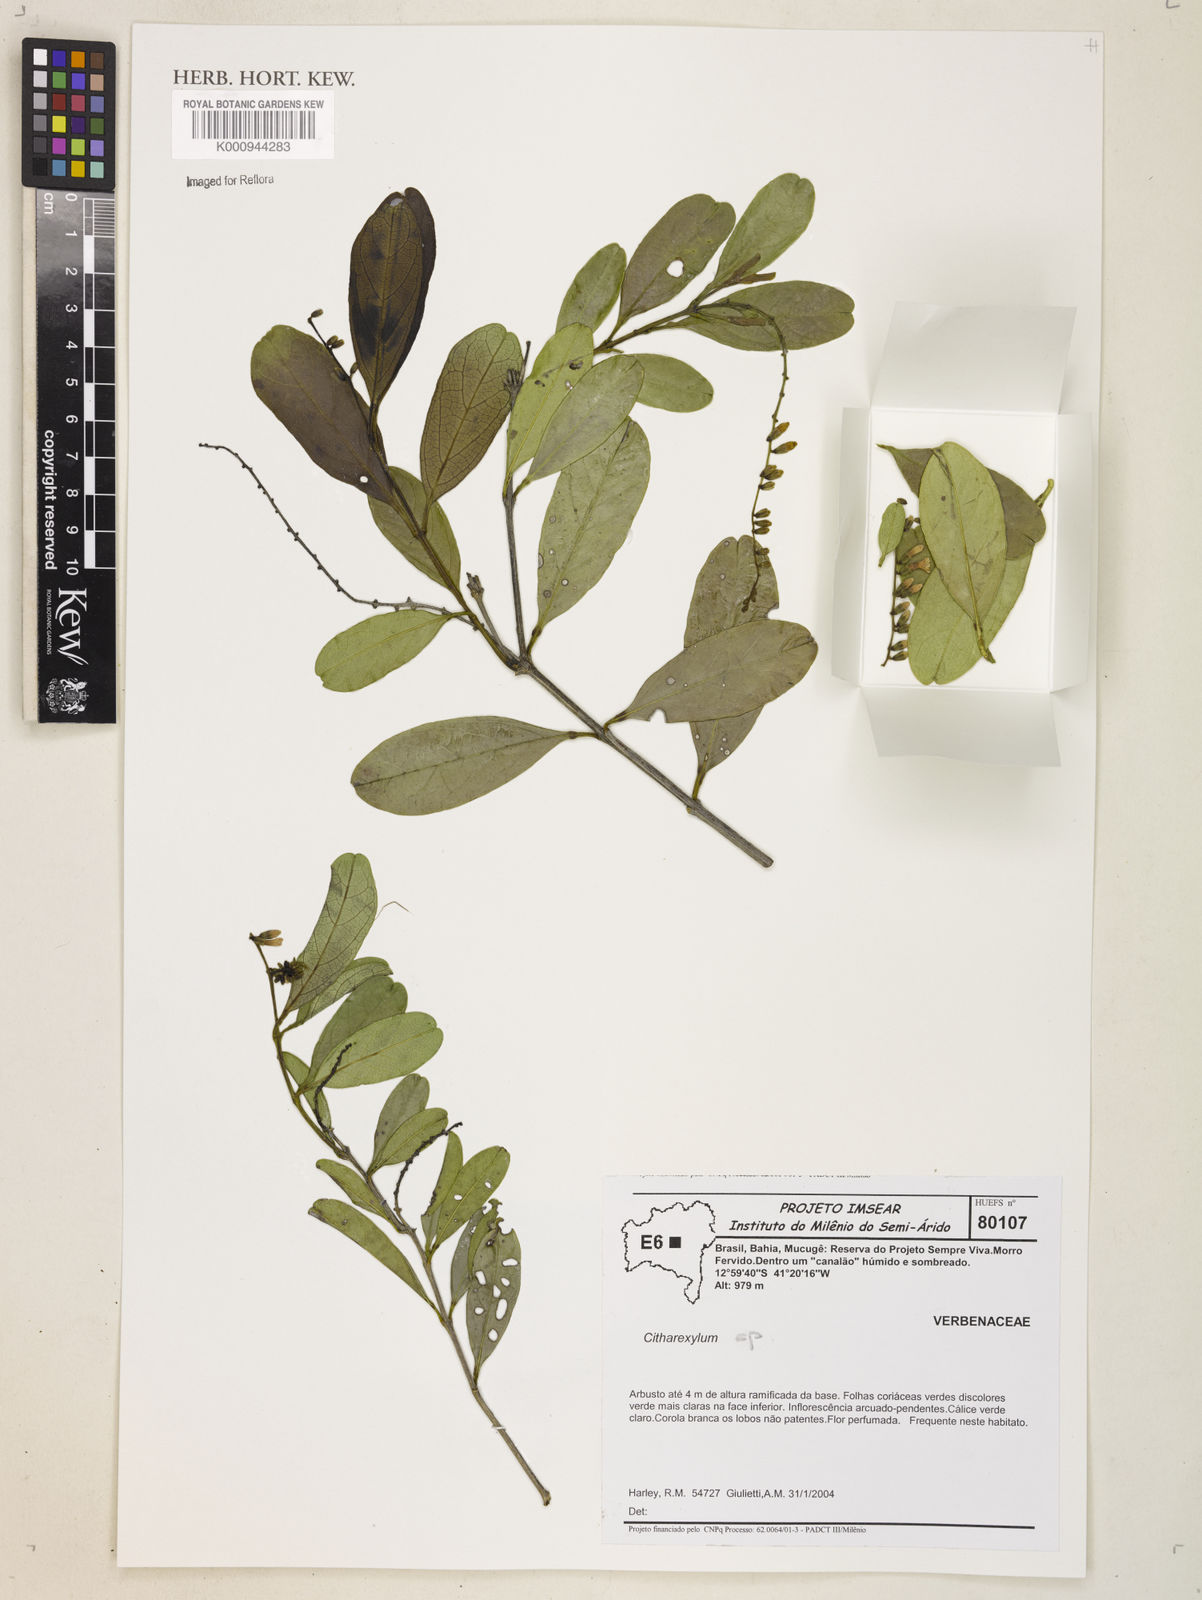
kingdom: Plantae
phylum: Tracheophyta
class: Magnoliopsida
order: Lamiales
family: Verbenaceae
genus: Citharexylum
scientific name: Citharexylum
